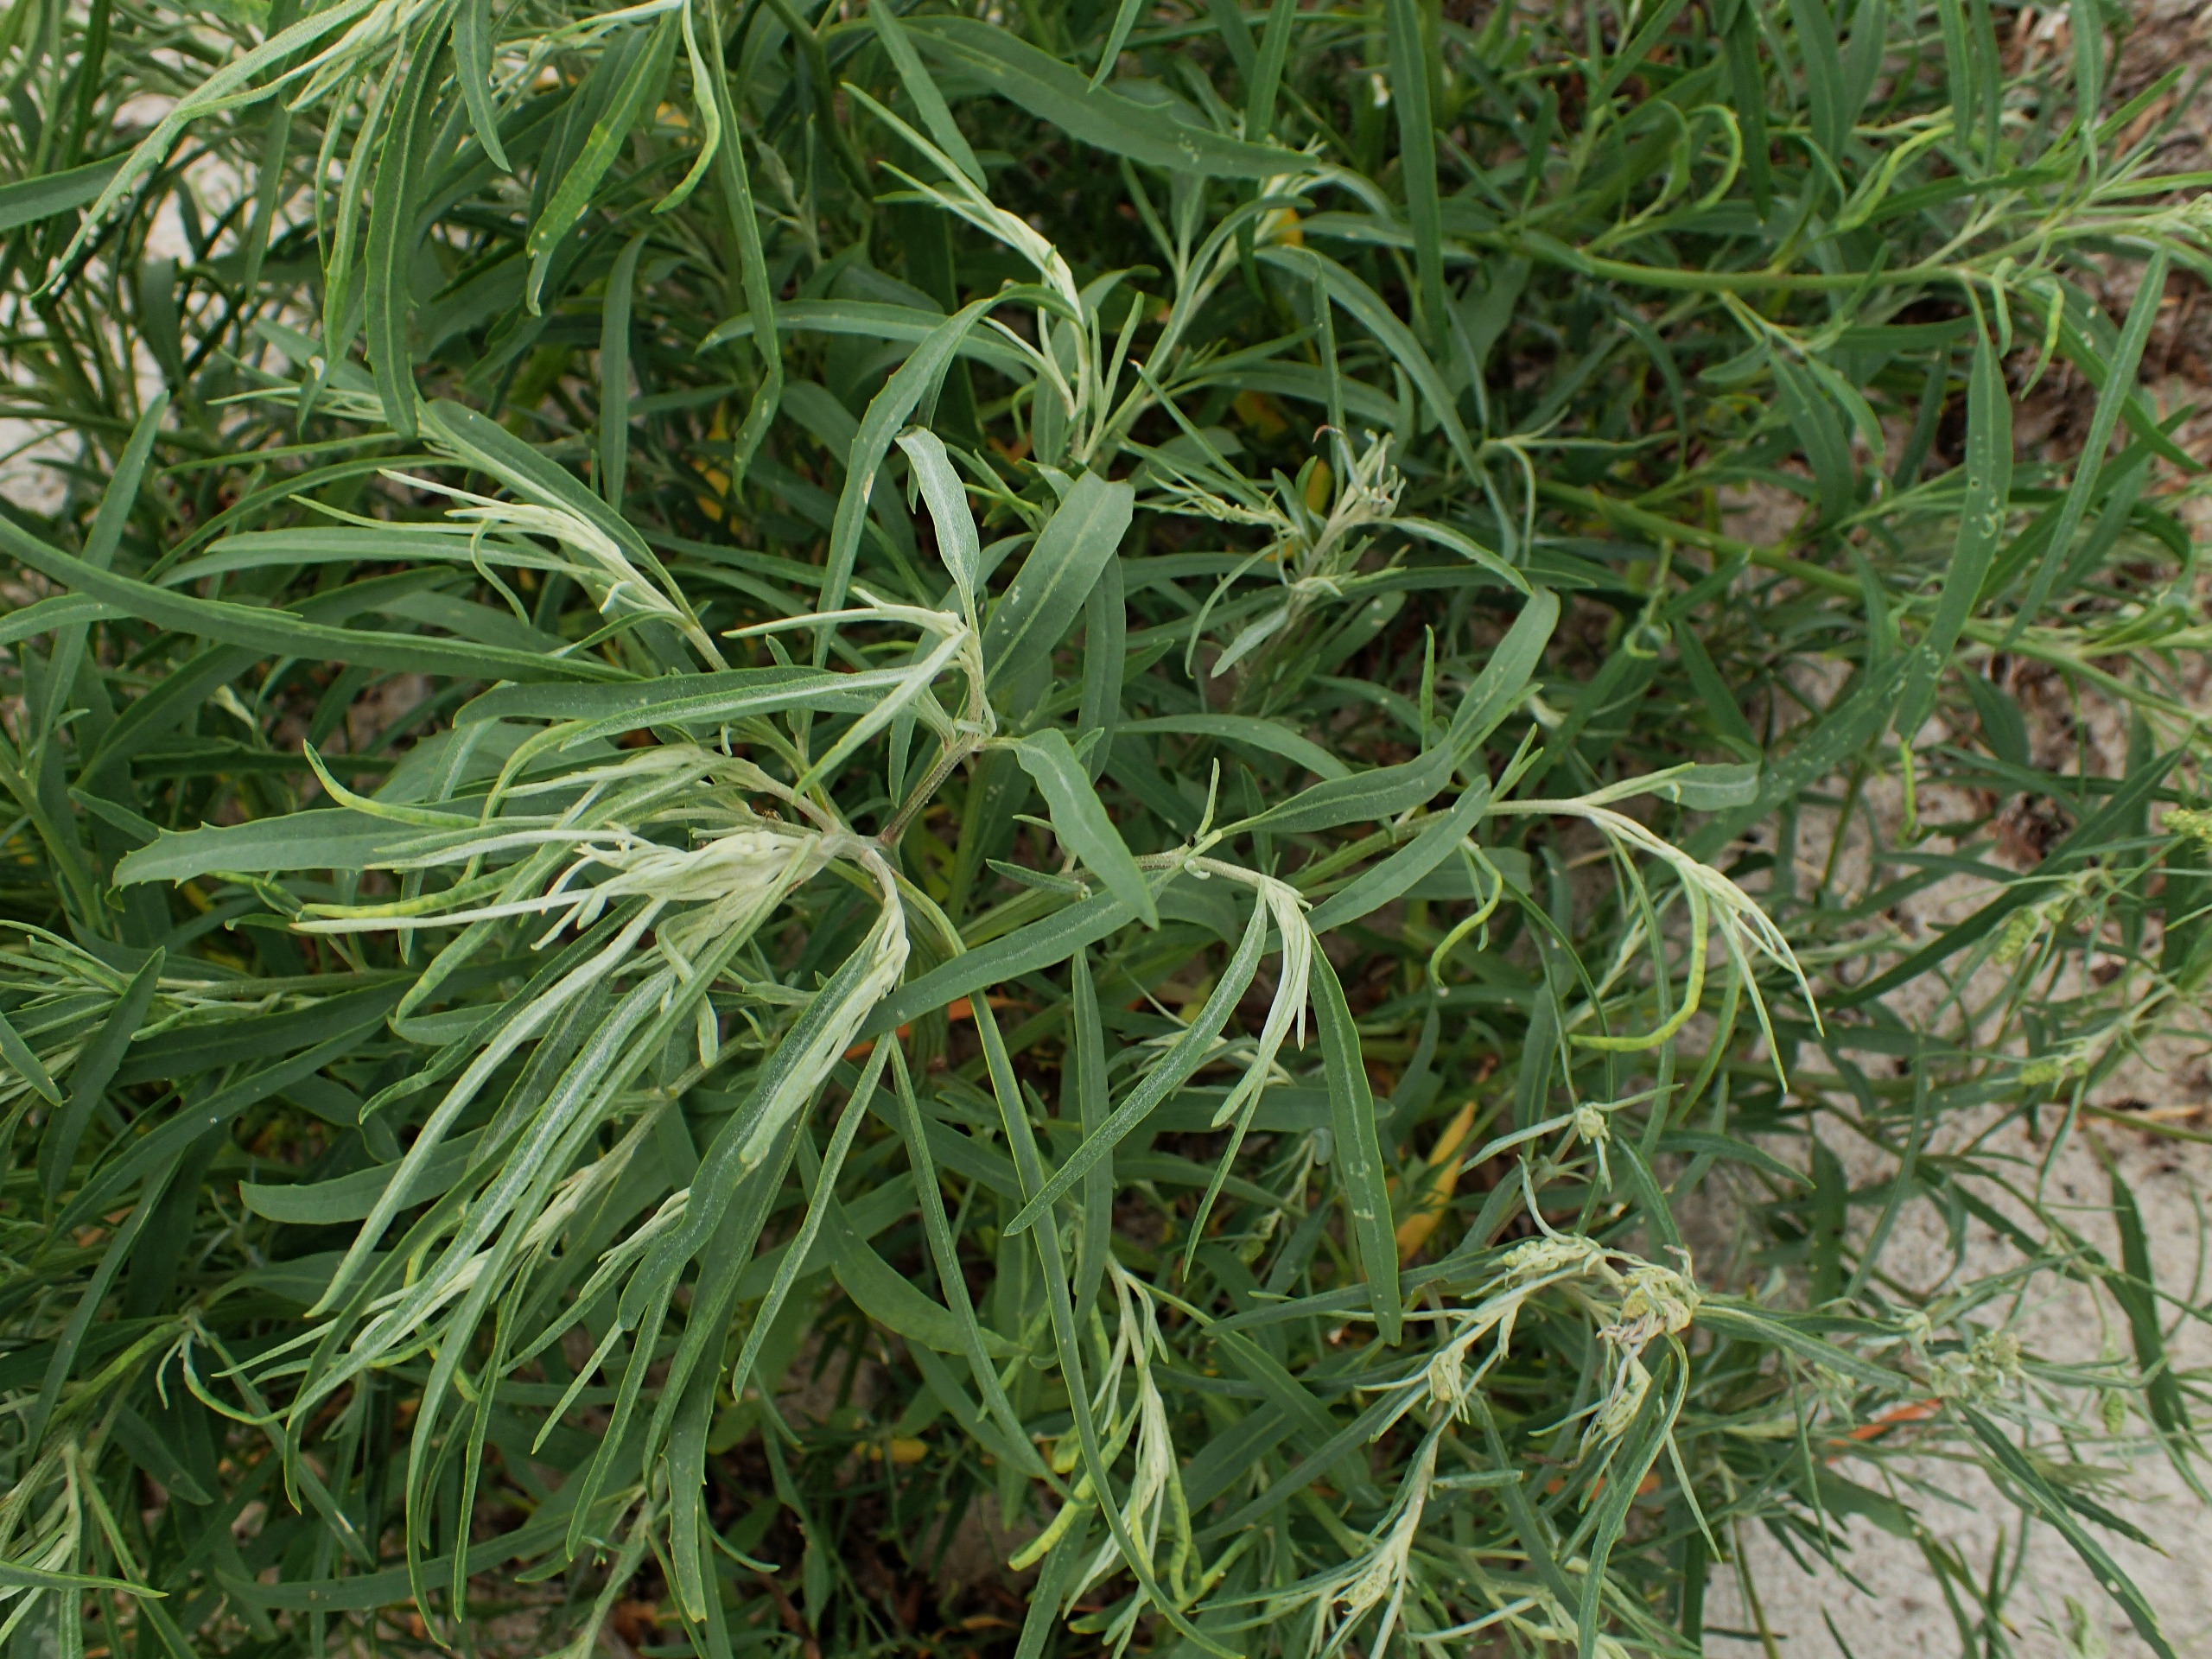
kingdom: Plantae
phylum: Tracheophyta
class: Magnoliopsida
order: Caryophyllales
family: Amaranthaceae
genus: Atriplex
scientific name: Atriplex littoralis
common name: Strand-mælde
